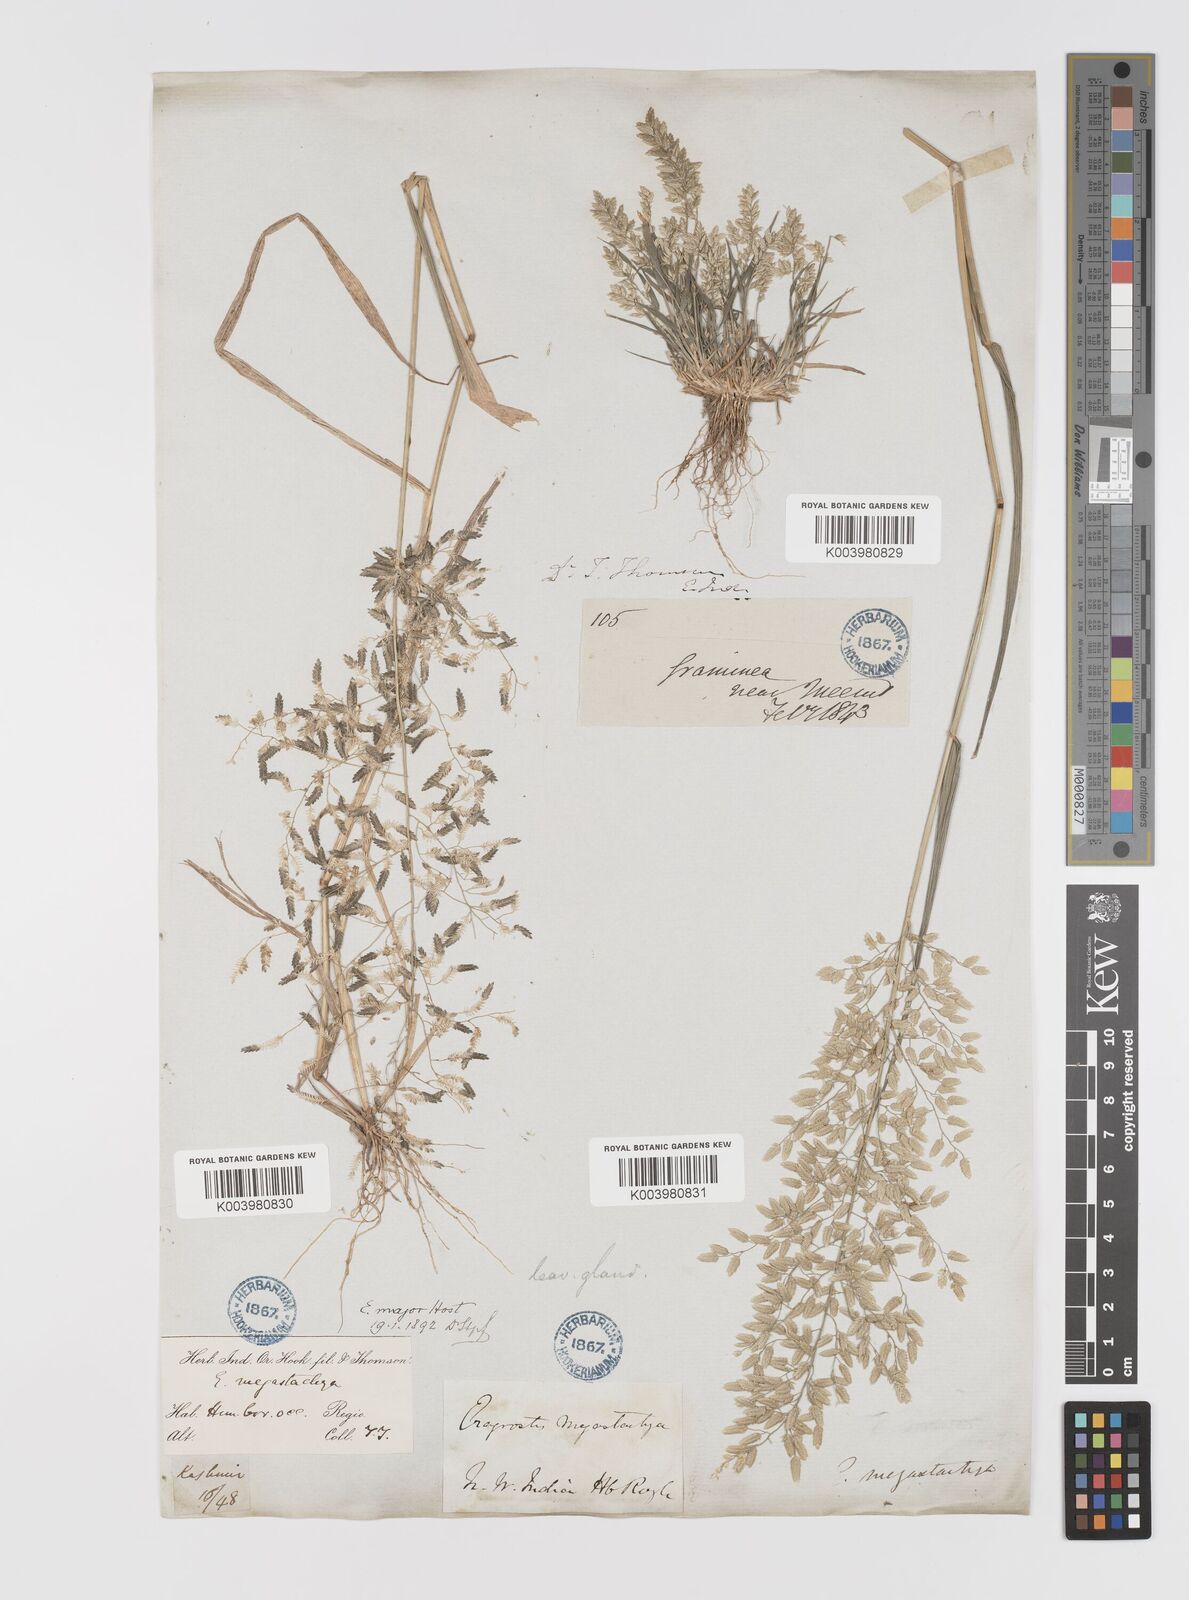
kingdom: Plantae
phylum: Tracheophyta
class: Liliopsida
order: Poales
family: Poaceae
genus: Eragrostis
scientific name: Eragrostis cilianensis
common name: Stinkgrass
